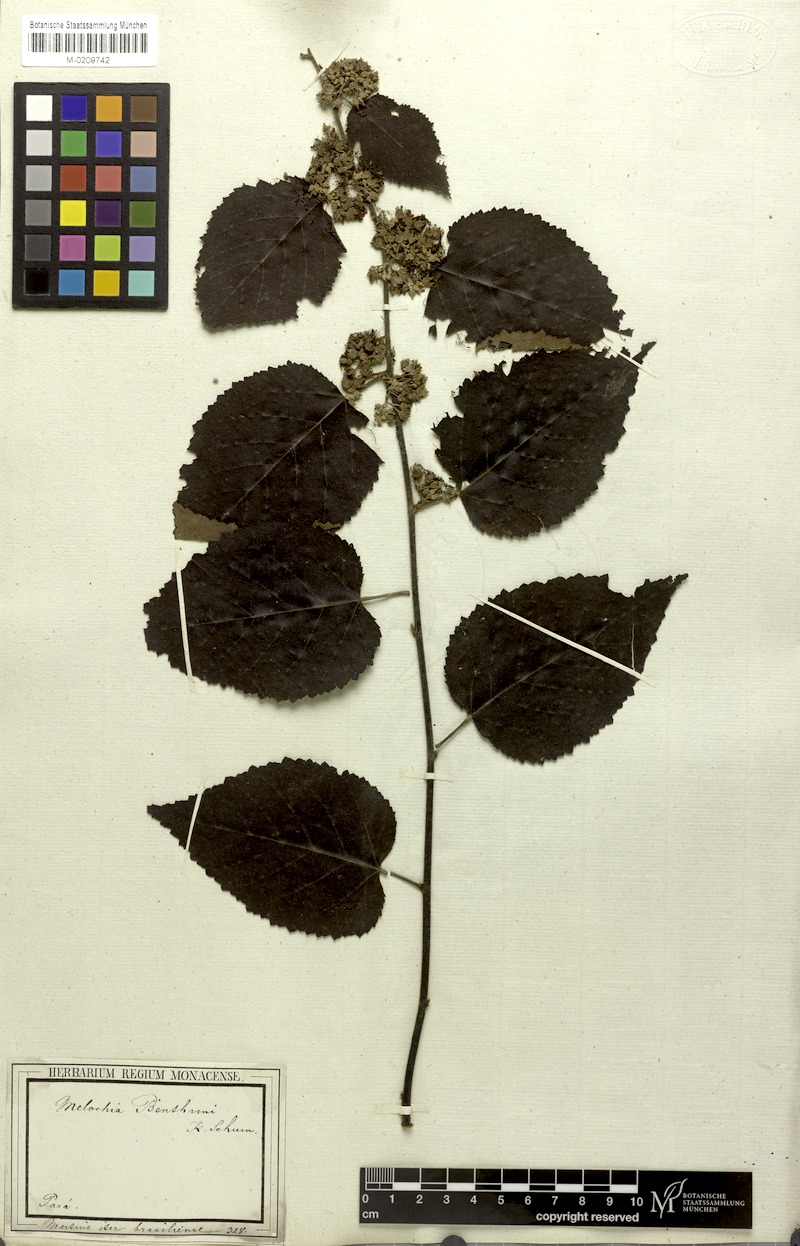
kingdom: Plantae
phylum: Tracheophyta
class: Magnoliopsida
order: Malvales
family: Malvaceae
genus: Melochia
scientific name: Melochia ulmifolia
